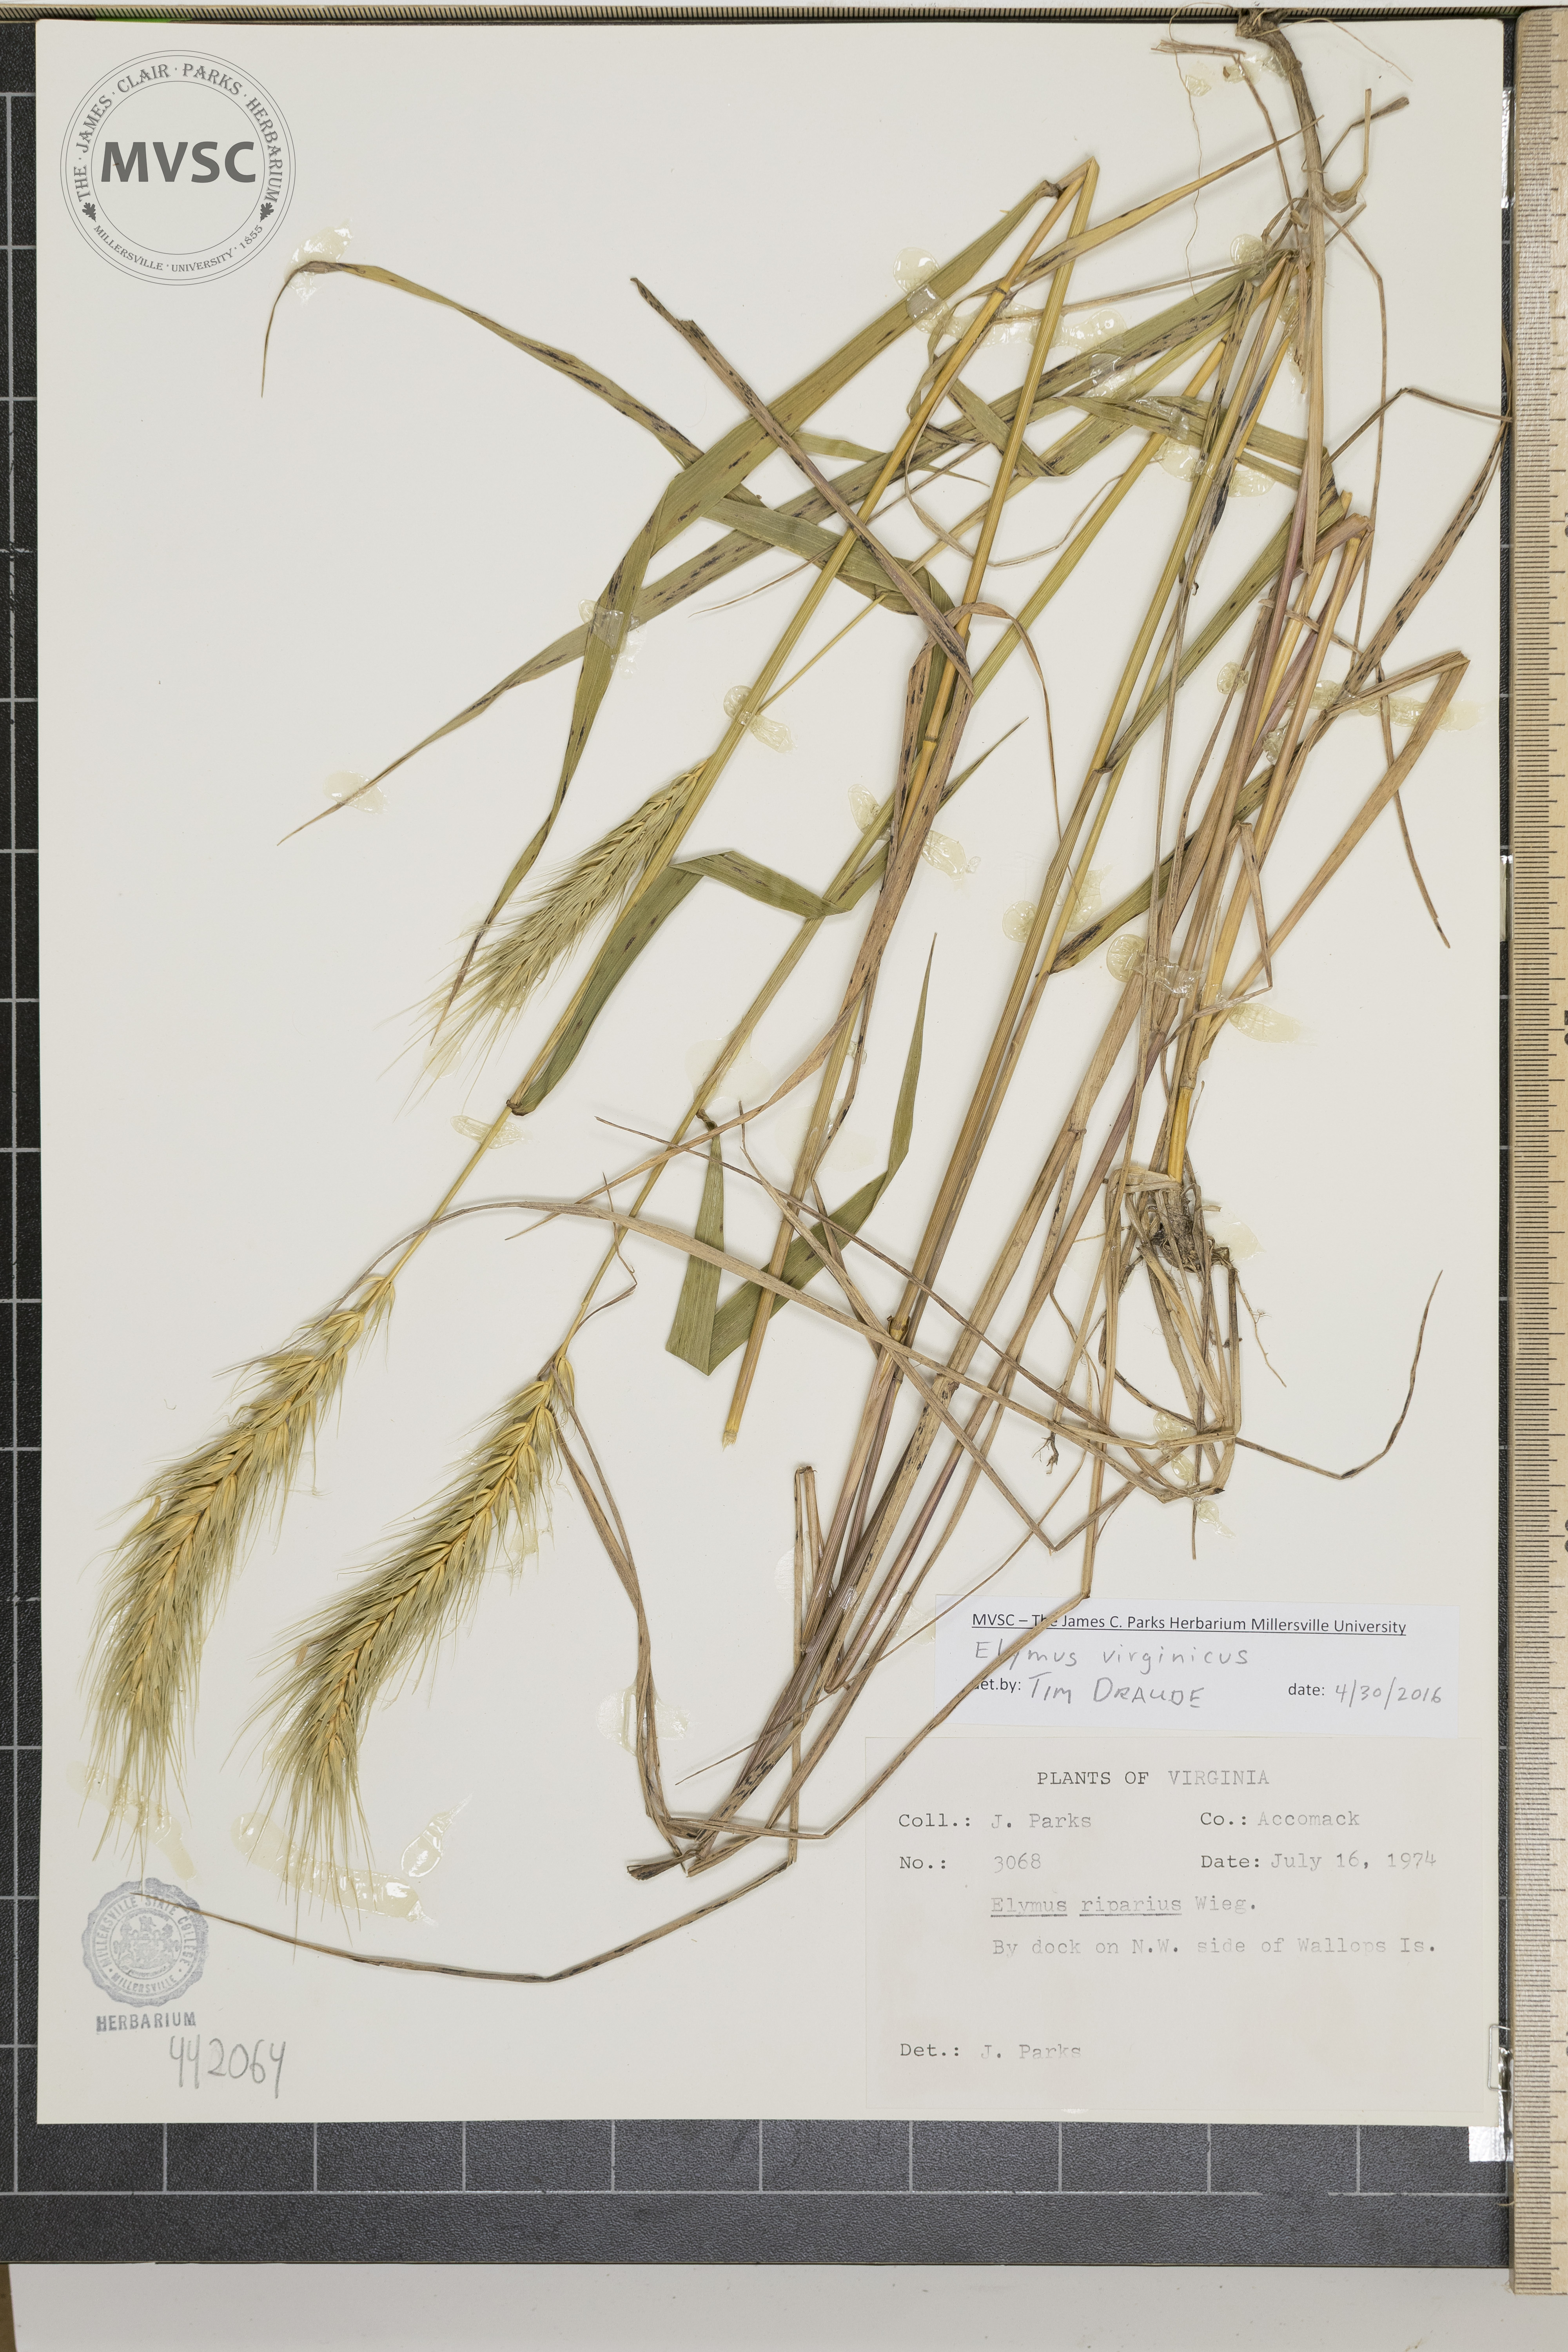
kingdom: Plantae
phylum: Tracheophyta
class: Liliopsida
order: Poales
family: Poaceae
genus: Elymus
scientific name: Elymus virginicus
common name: Common eastern wildrye
